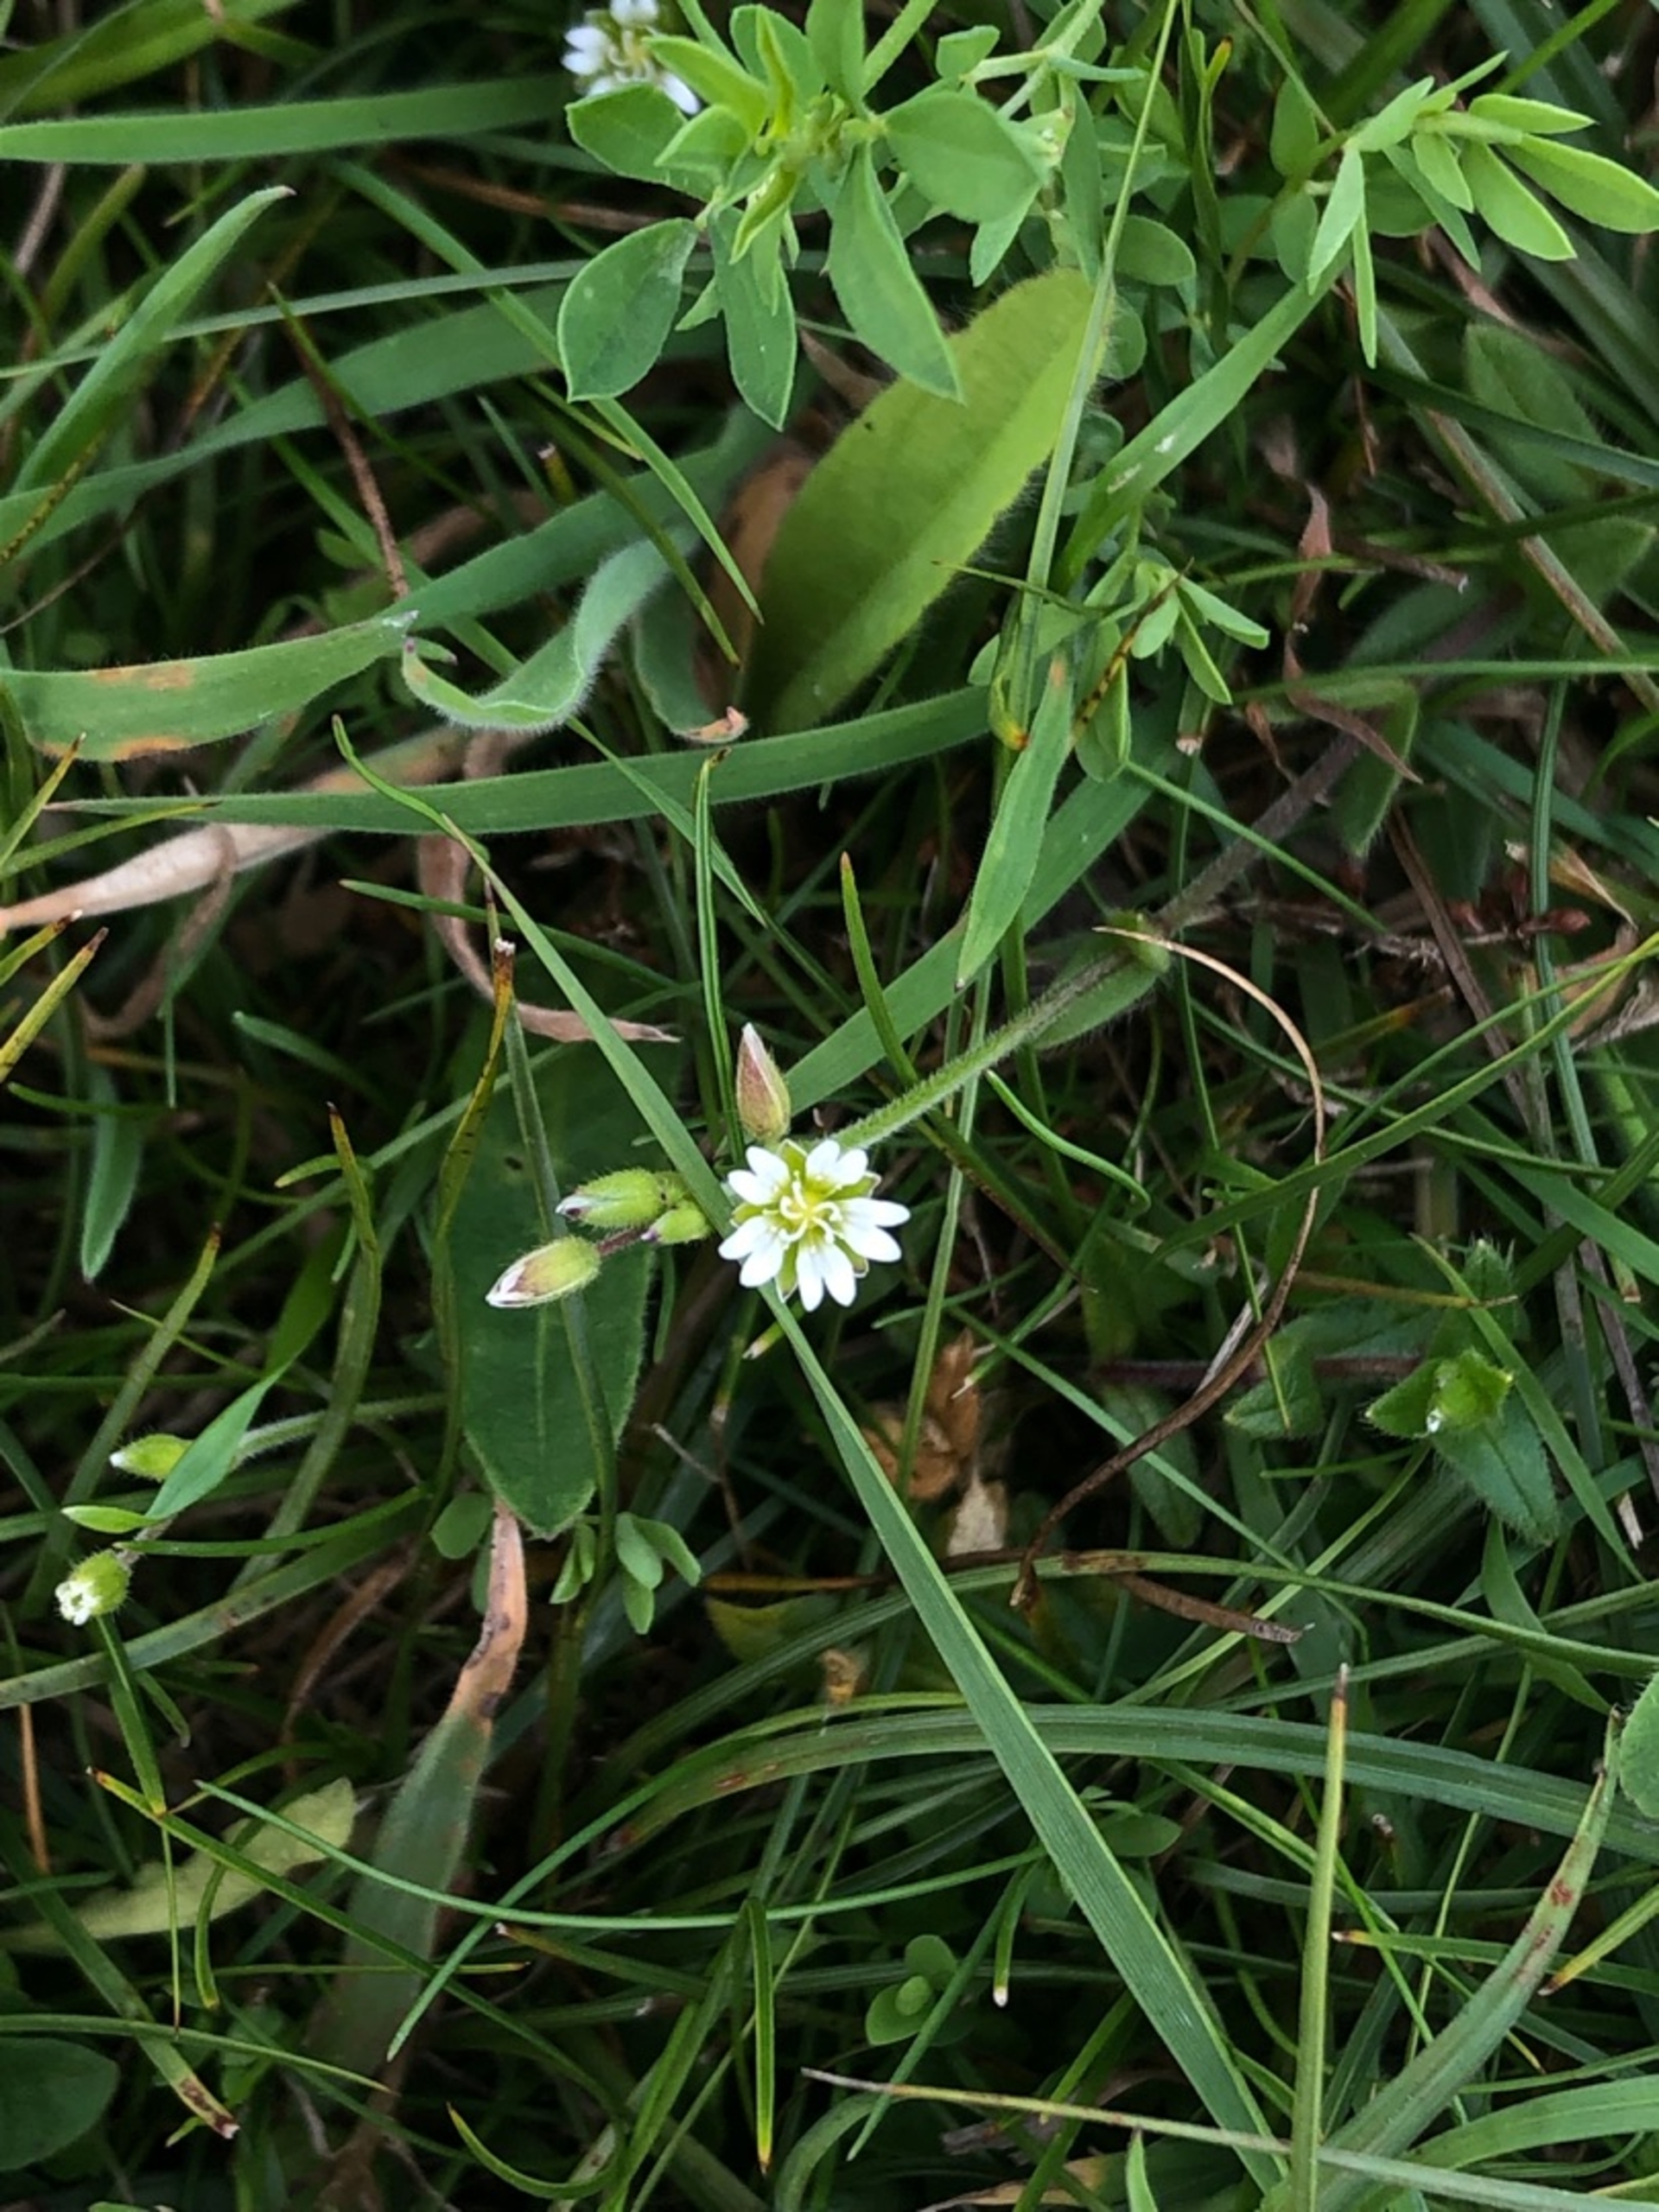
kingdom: Plantae
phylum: Tracheophyta
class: Magnoliopsida
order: Caryophyllales
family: Caryophyllaceae
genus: Cerastium
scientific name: Cerastium fontanum
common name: Almindelig hønsetarm
